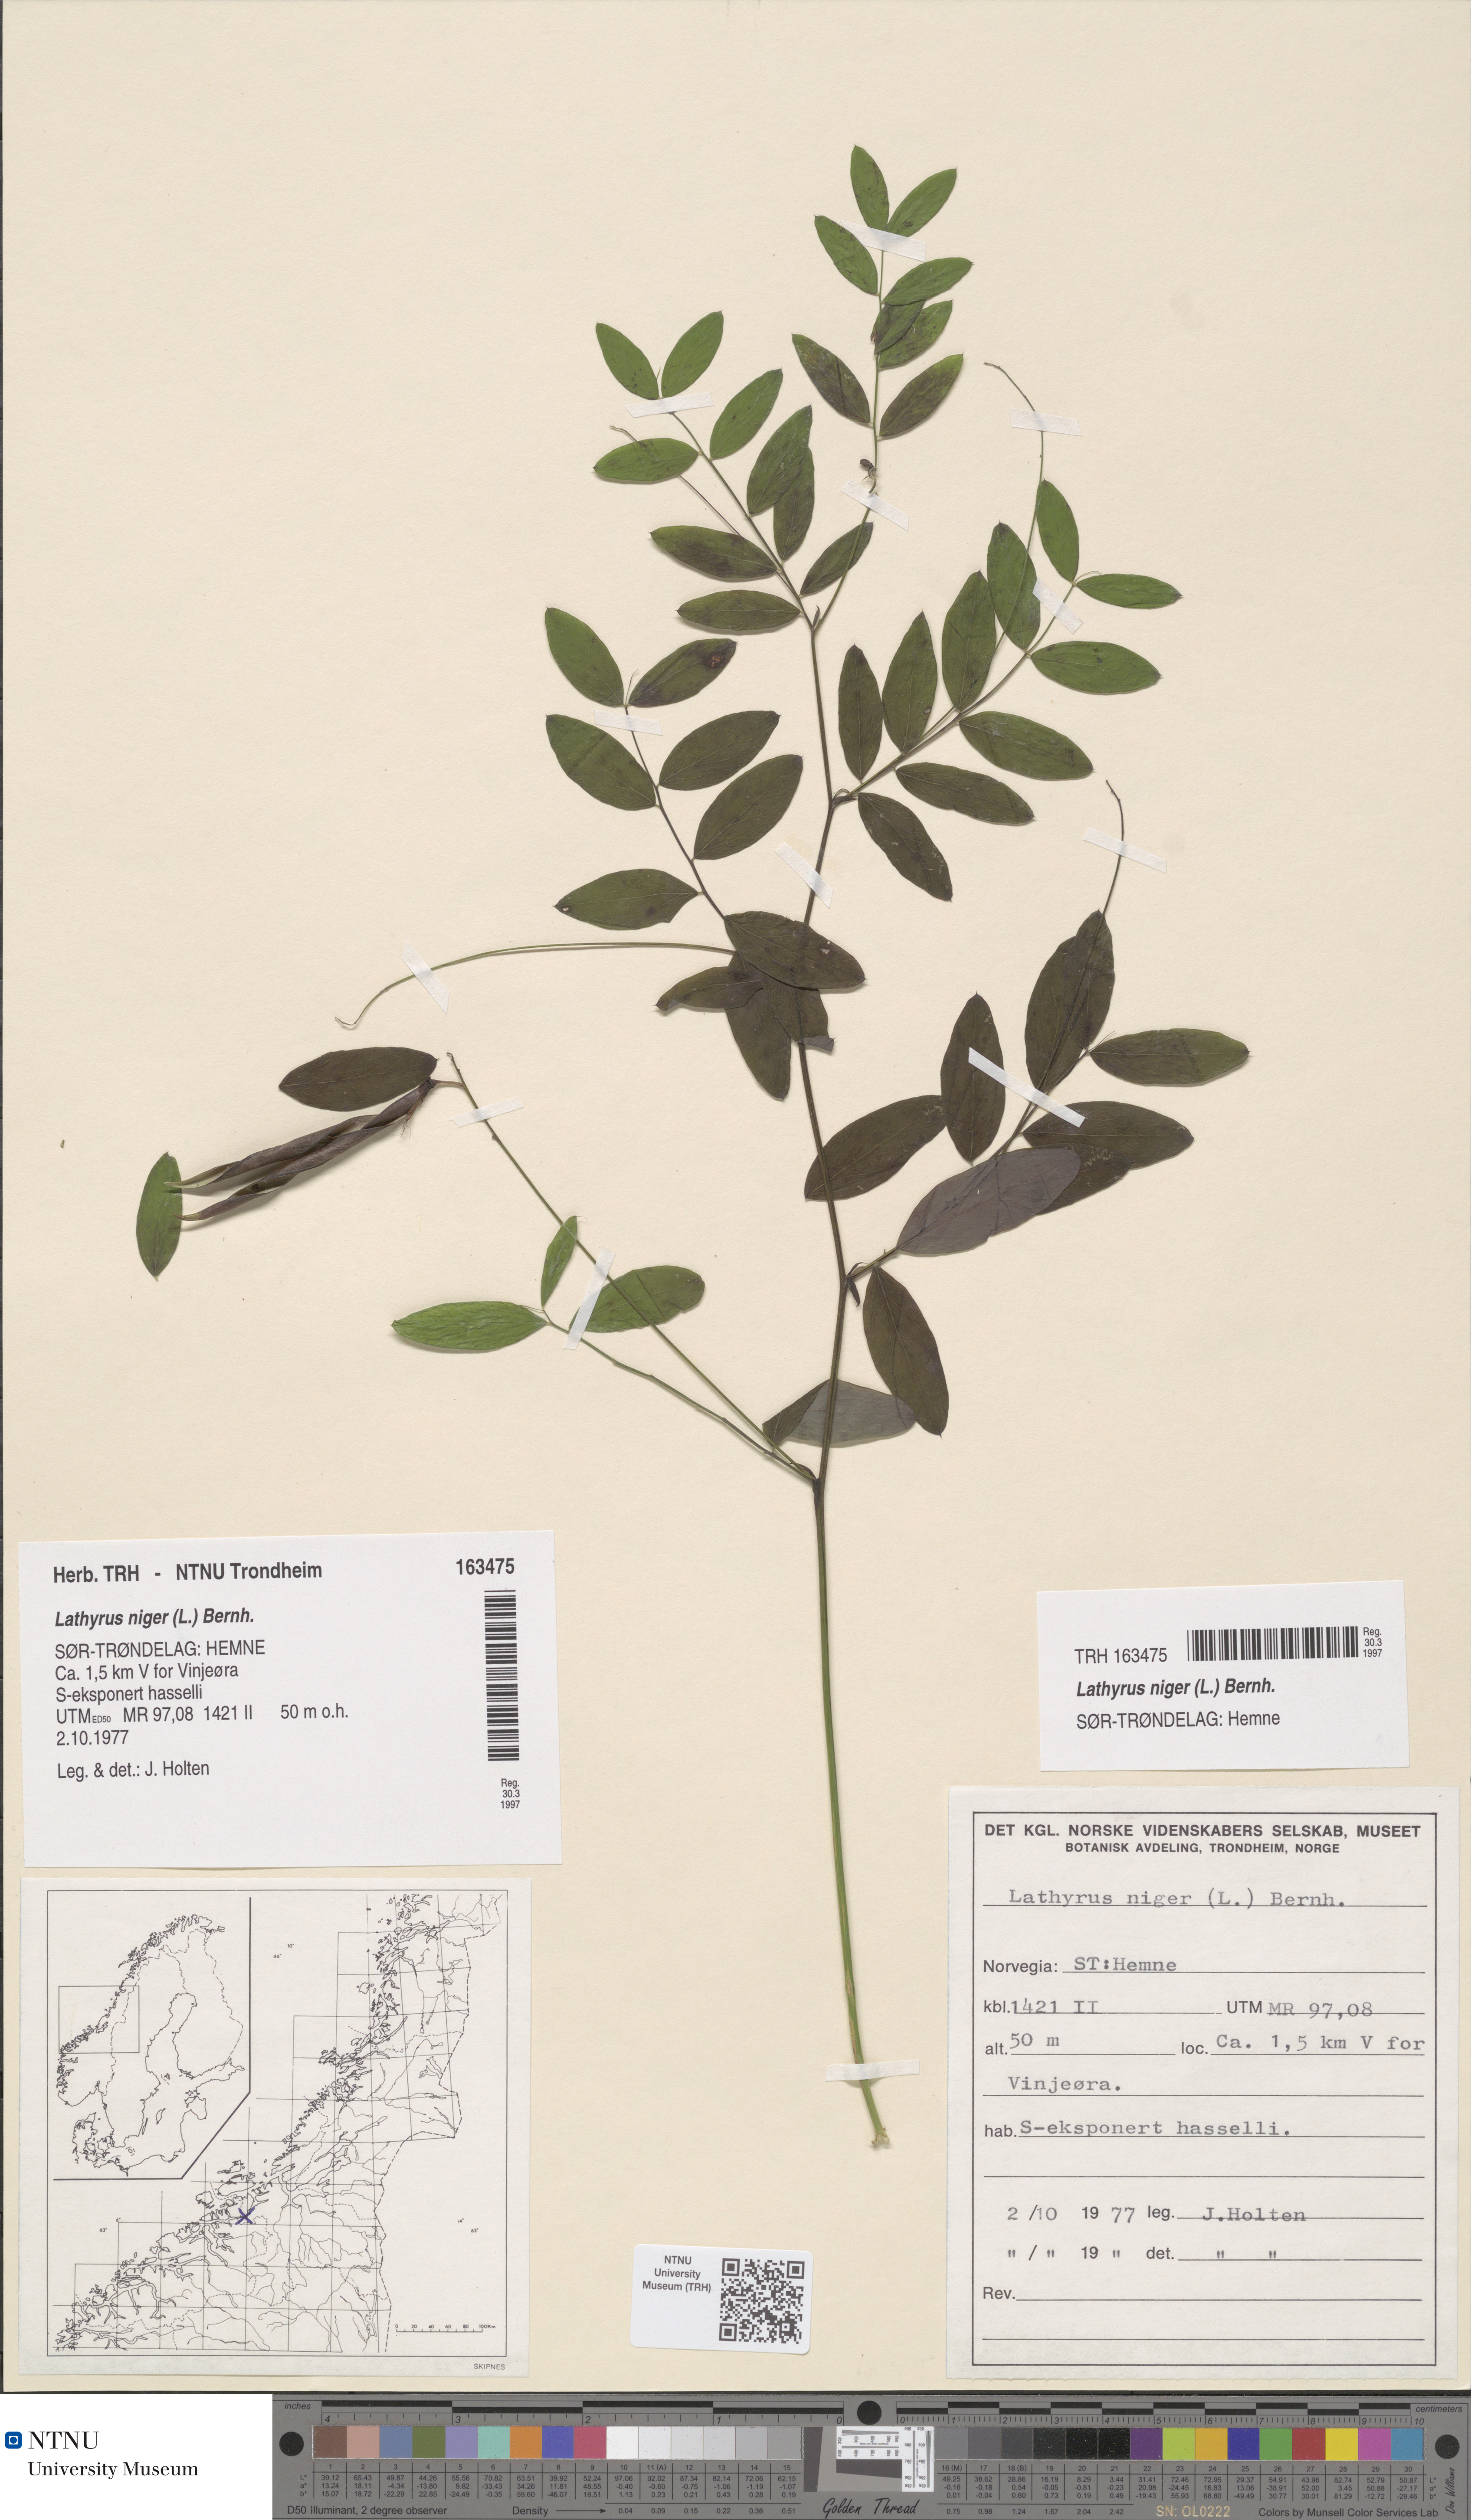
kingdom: Plantae
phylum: Tracheophyta
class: Magnoliopsida
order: Fabales
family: Fabaceae
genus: Lathyrus
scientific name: Lathyrus niger
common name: Black pea
